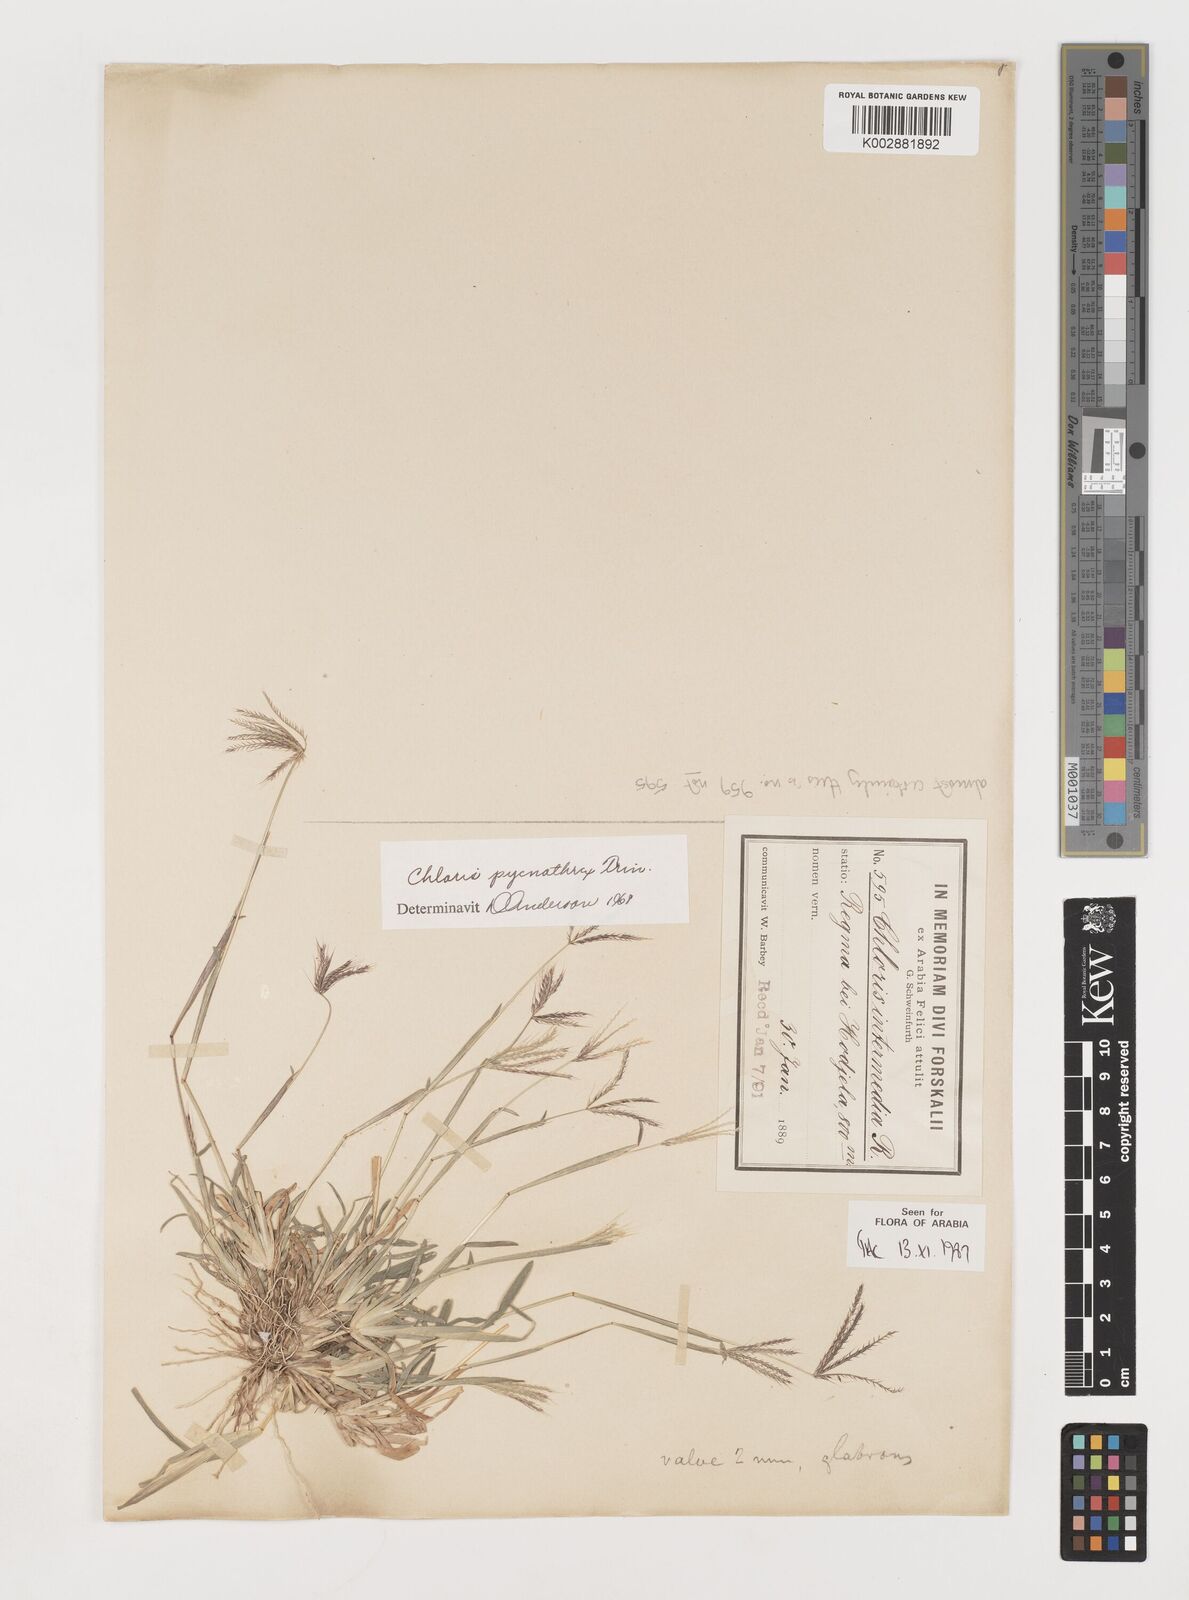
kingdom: Plantae
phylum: Tracheophyta
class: Liliopsida
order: Poales
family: Poaceae
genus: Chloris
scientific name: Chloris pycnothrix
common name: Spiderweb chloris
